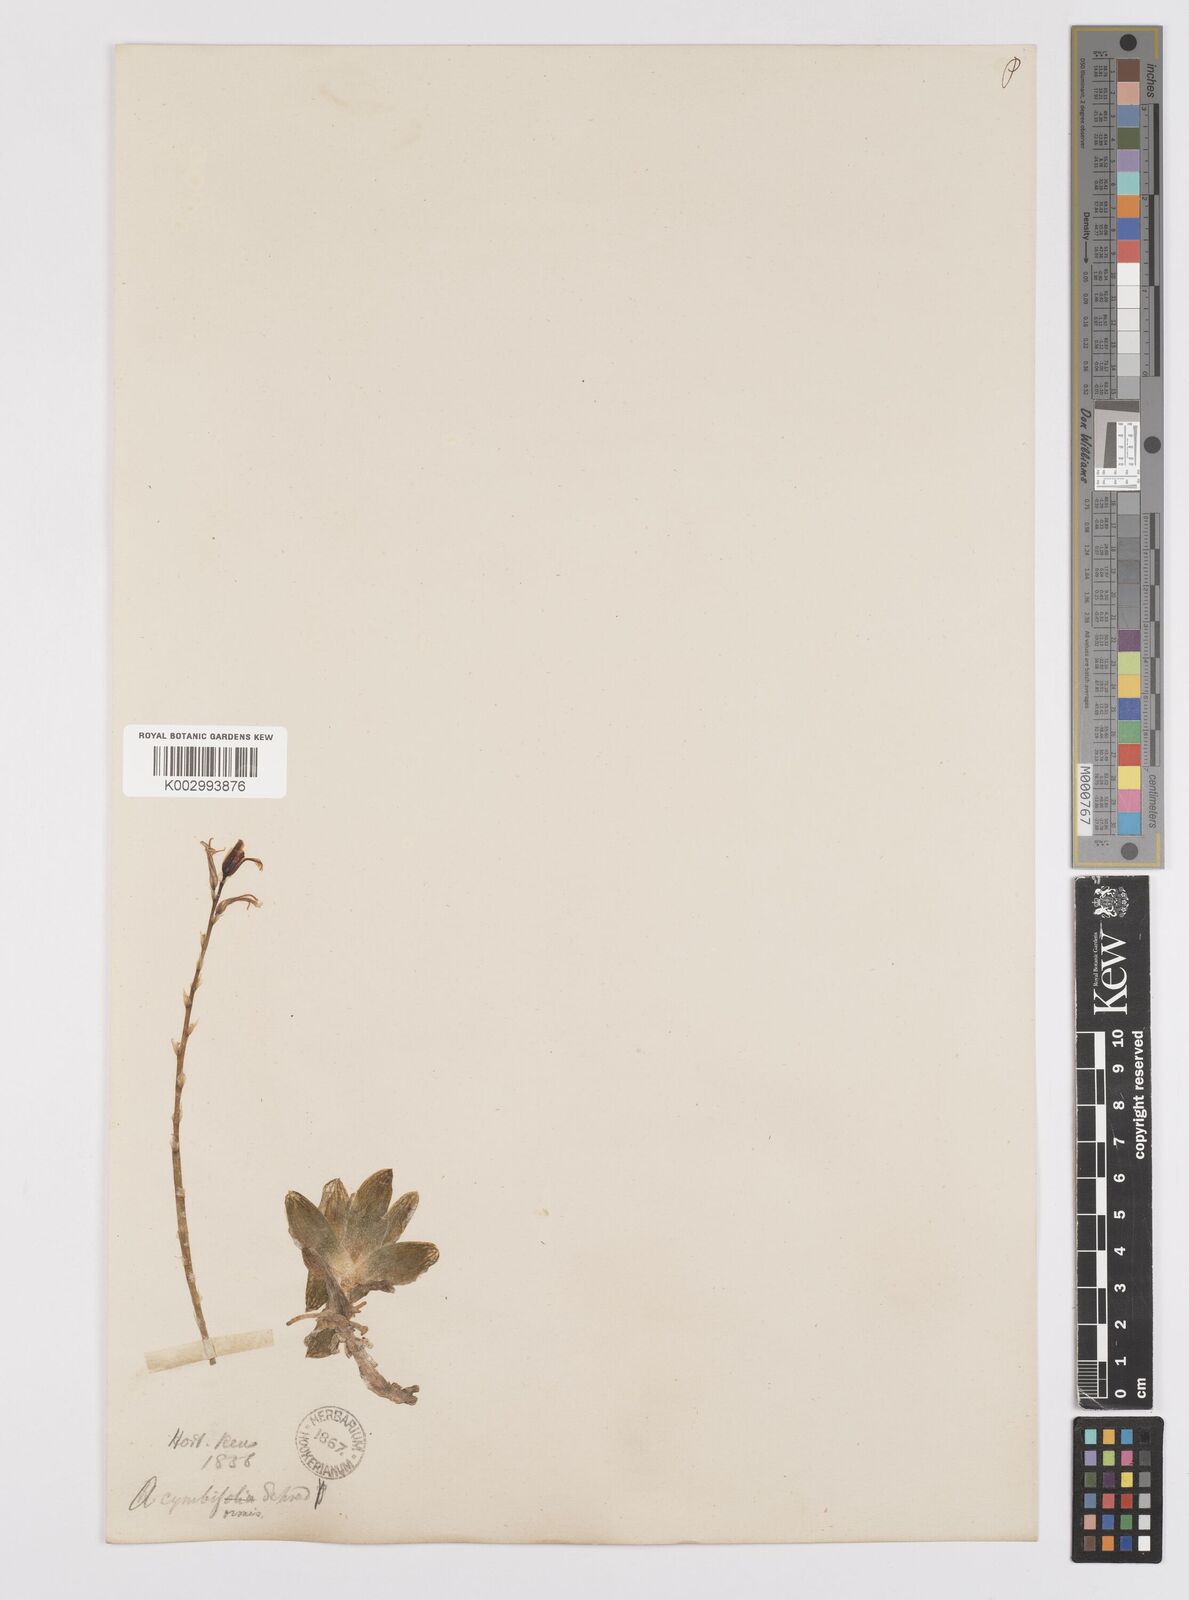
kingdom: Plantae
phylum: Tracheophyta
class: Liliopsida
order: Asparagales
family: Asphodelaceae
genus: Haworthia
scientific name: Haworthia cymbiformis
